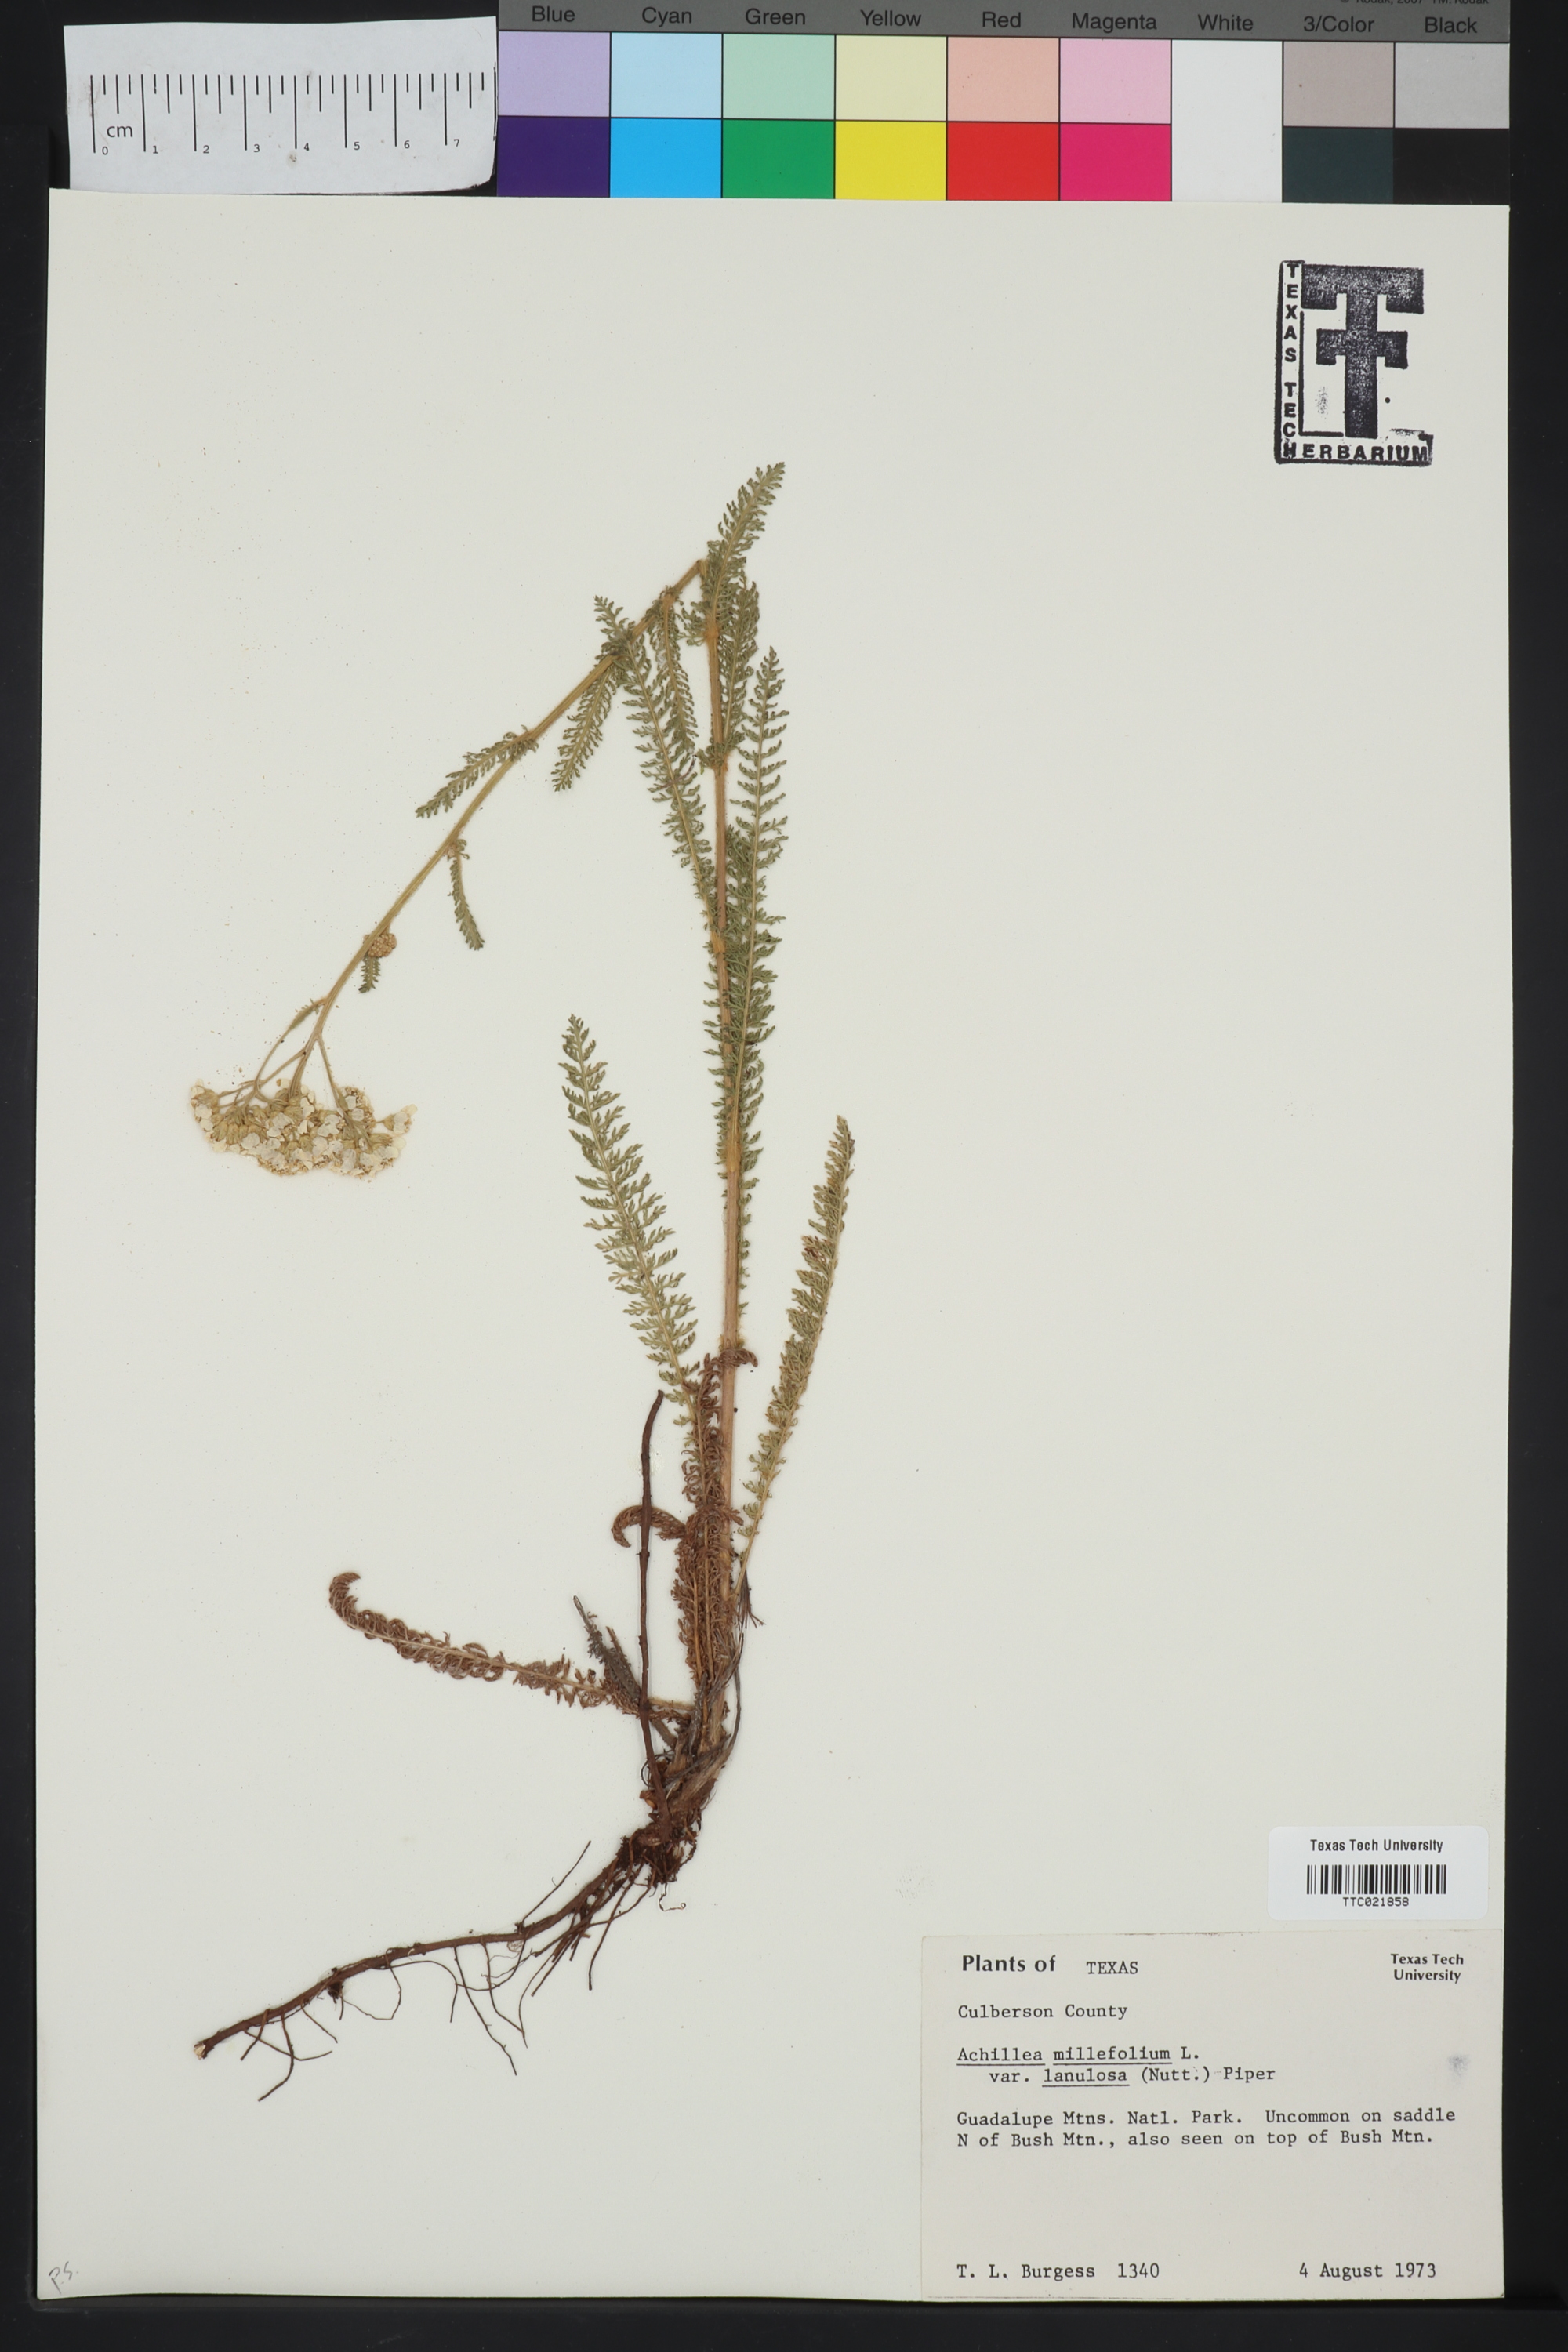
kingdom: Plantae
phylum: Tracheophyta
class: Magnoliopsida
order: Asterales
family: Asteraceae
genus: Achillea
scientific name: Achillea millefolium
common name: Yarrow
